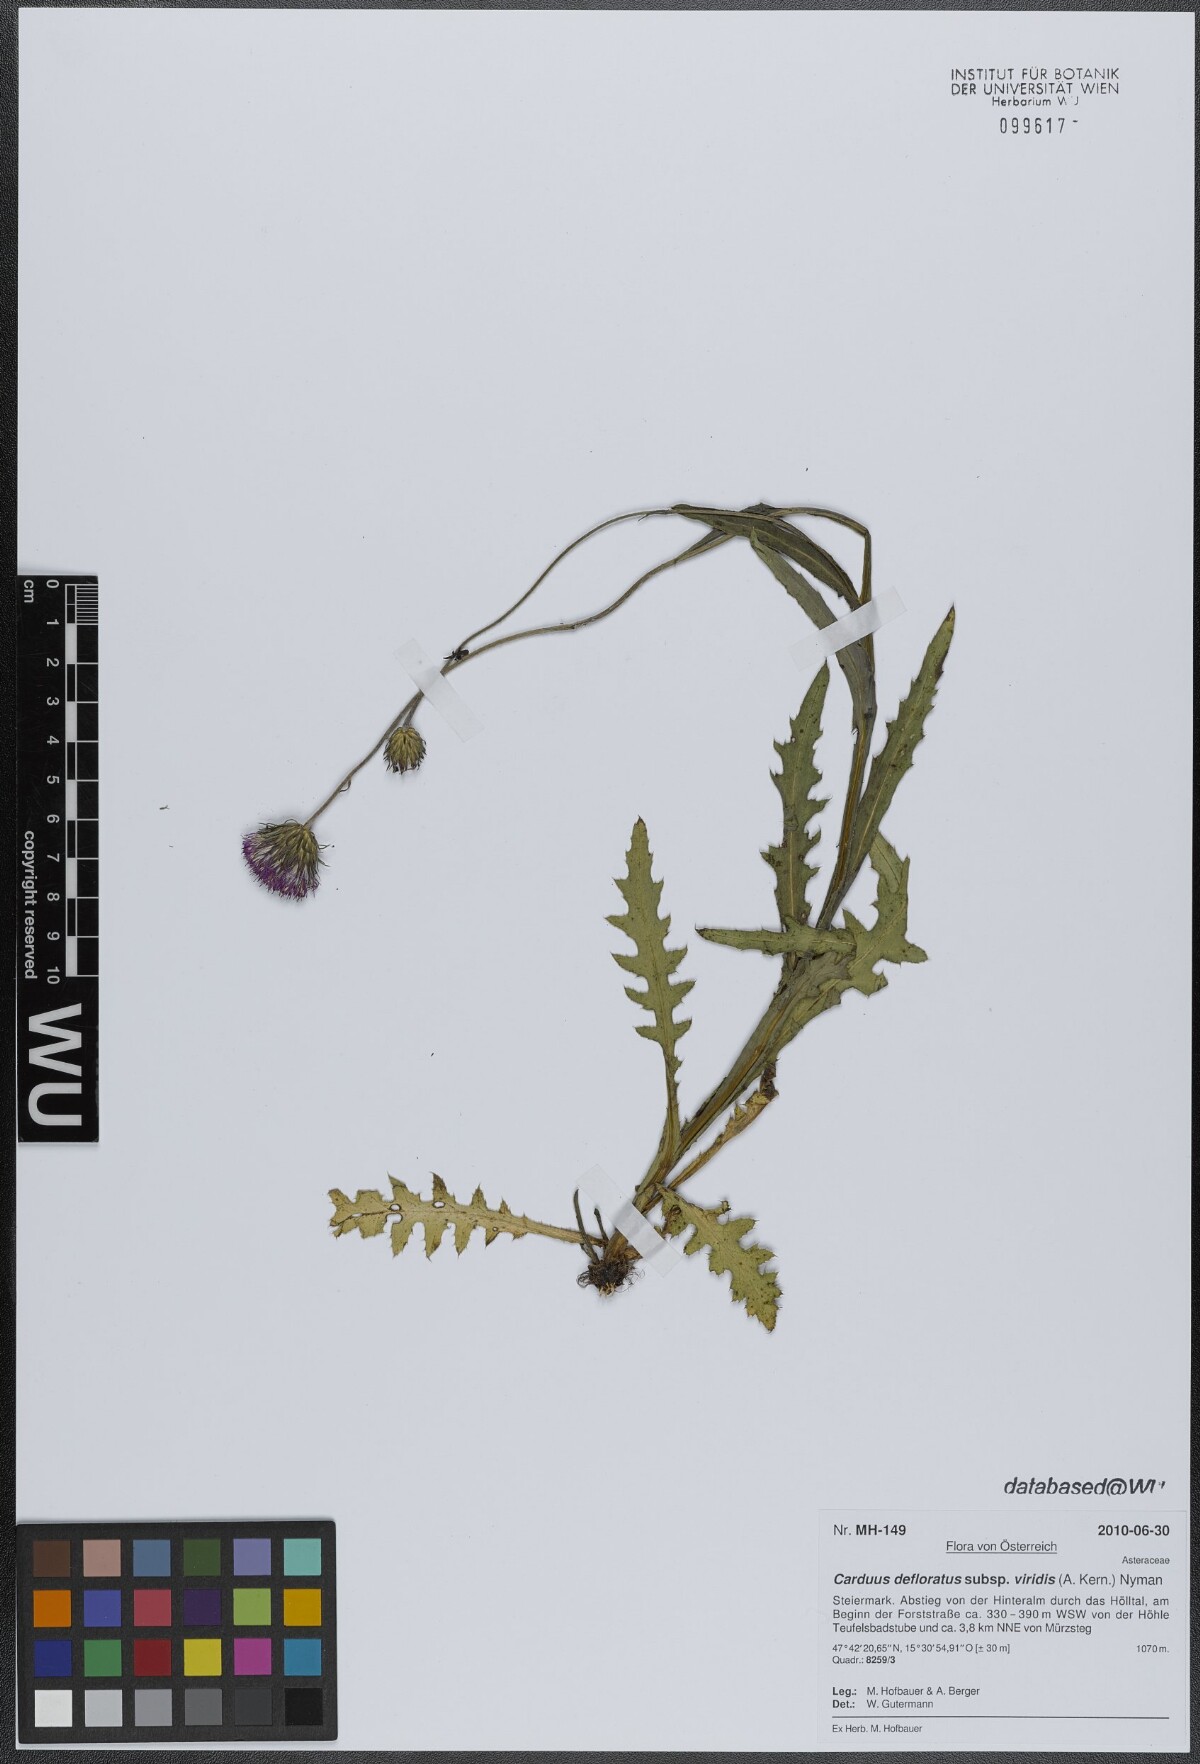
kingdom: Plantae
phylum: Tracheophyta
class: Magnoliopsida
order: Asterales
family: Asteraceae
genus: Carduus
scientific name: Carduus defloratus
